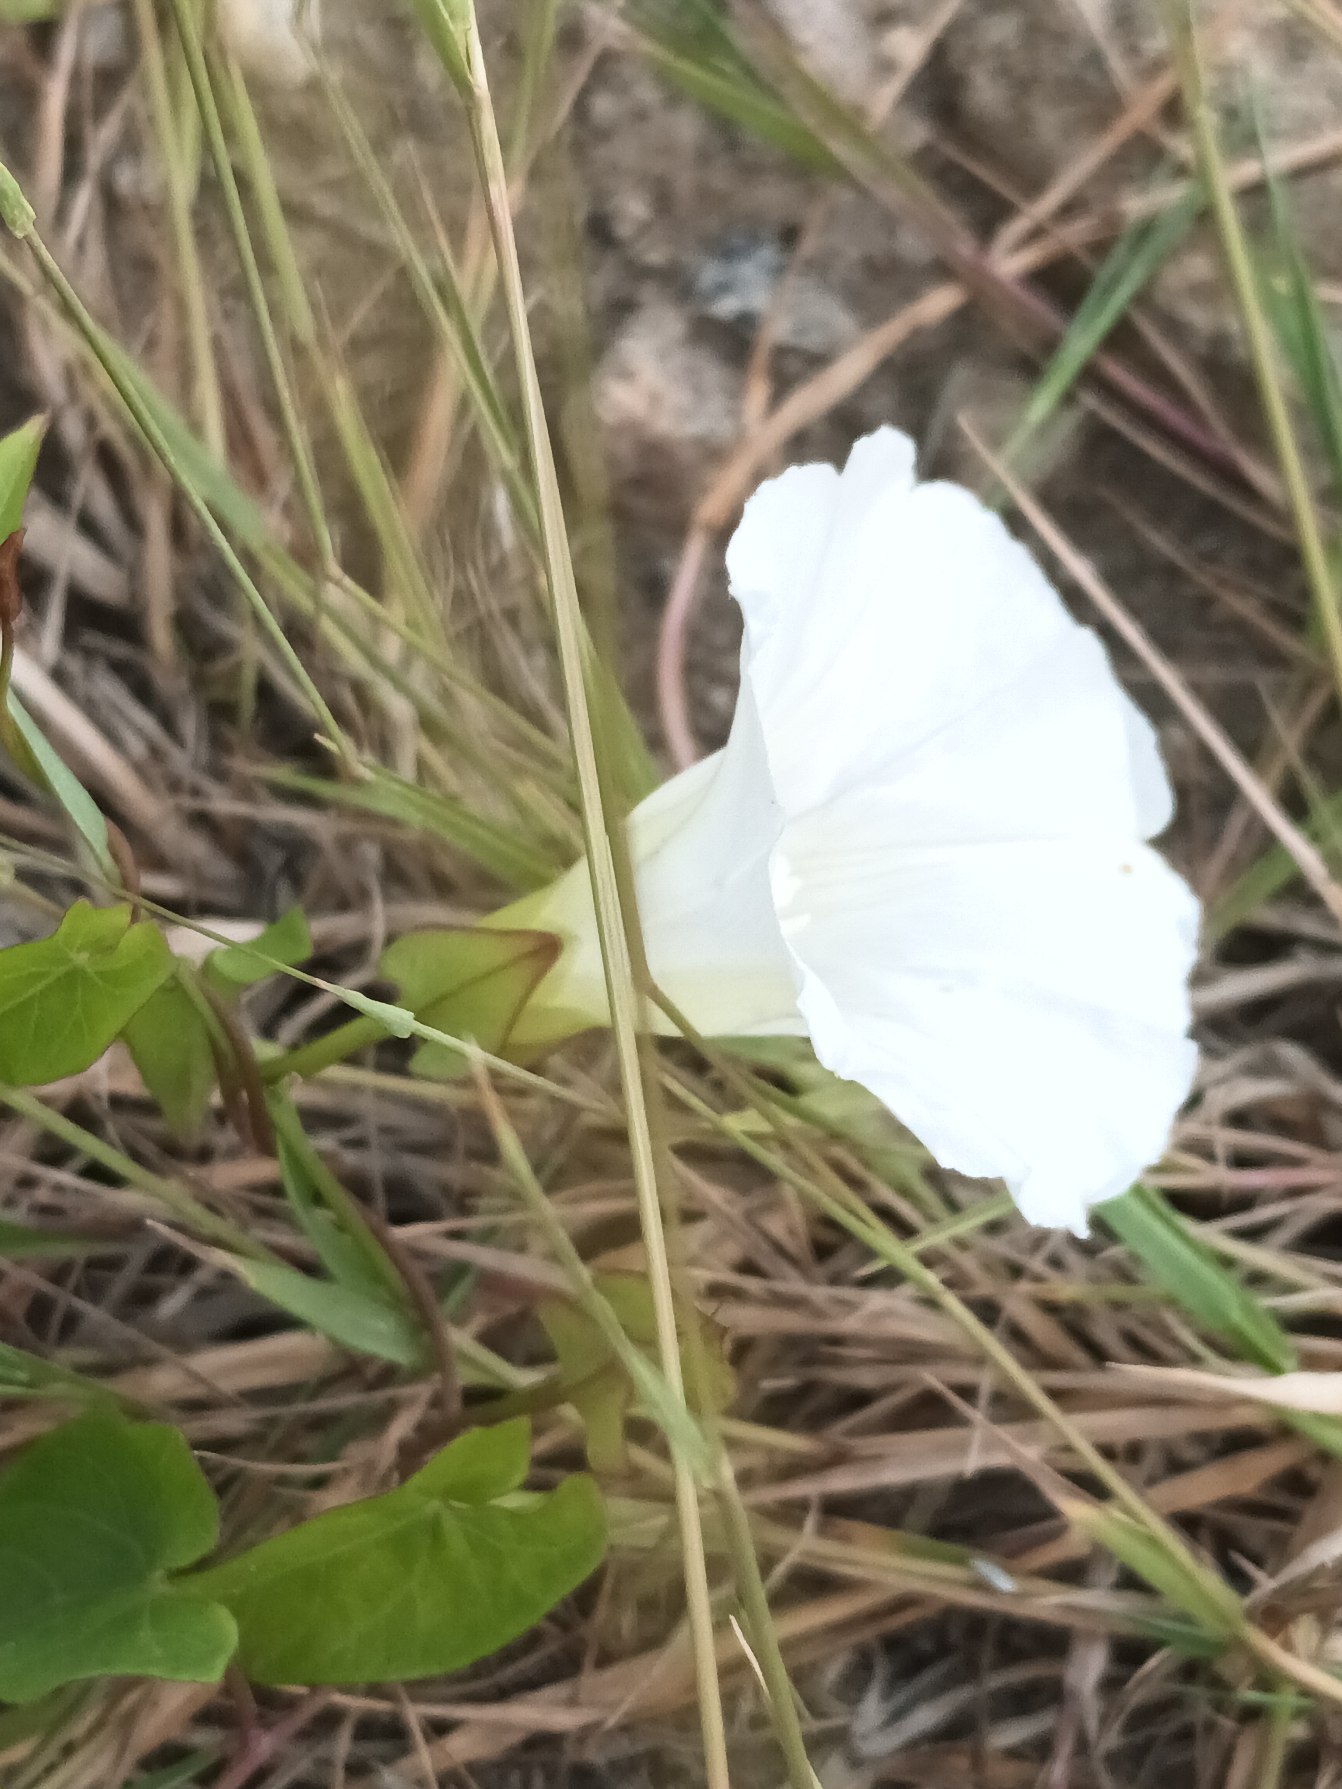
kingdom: Plantae
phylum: Tracheophyta
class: Magnoliopsida
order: Solanales
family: Convolvulaceae
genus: Calystegia
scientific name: Calystegia sepium
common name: Gærde-snerle
